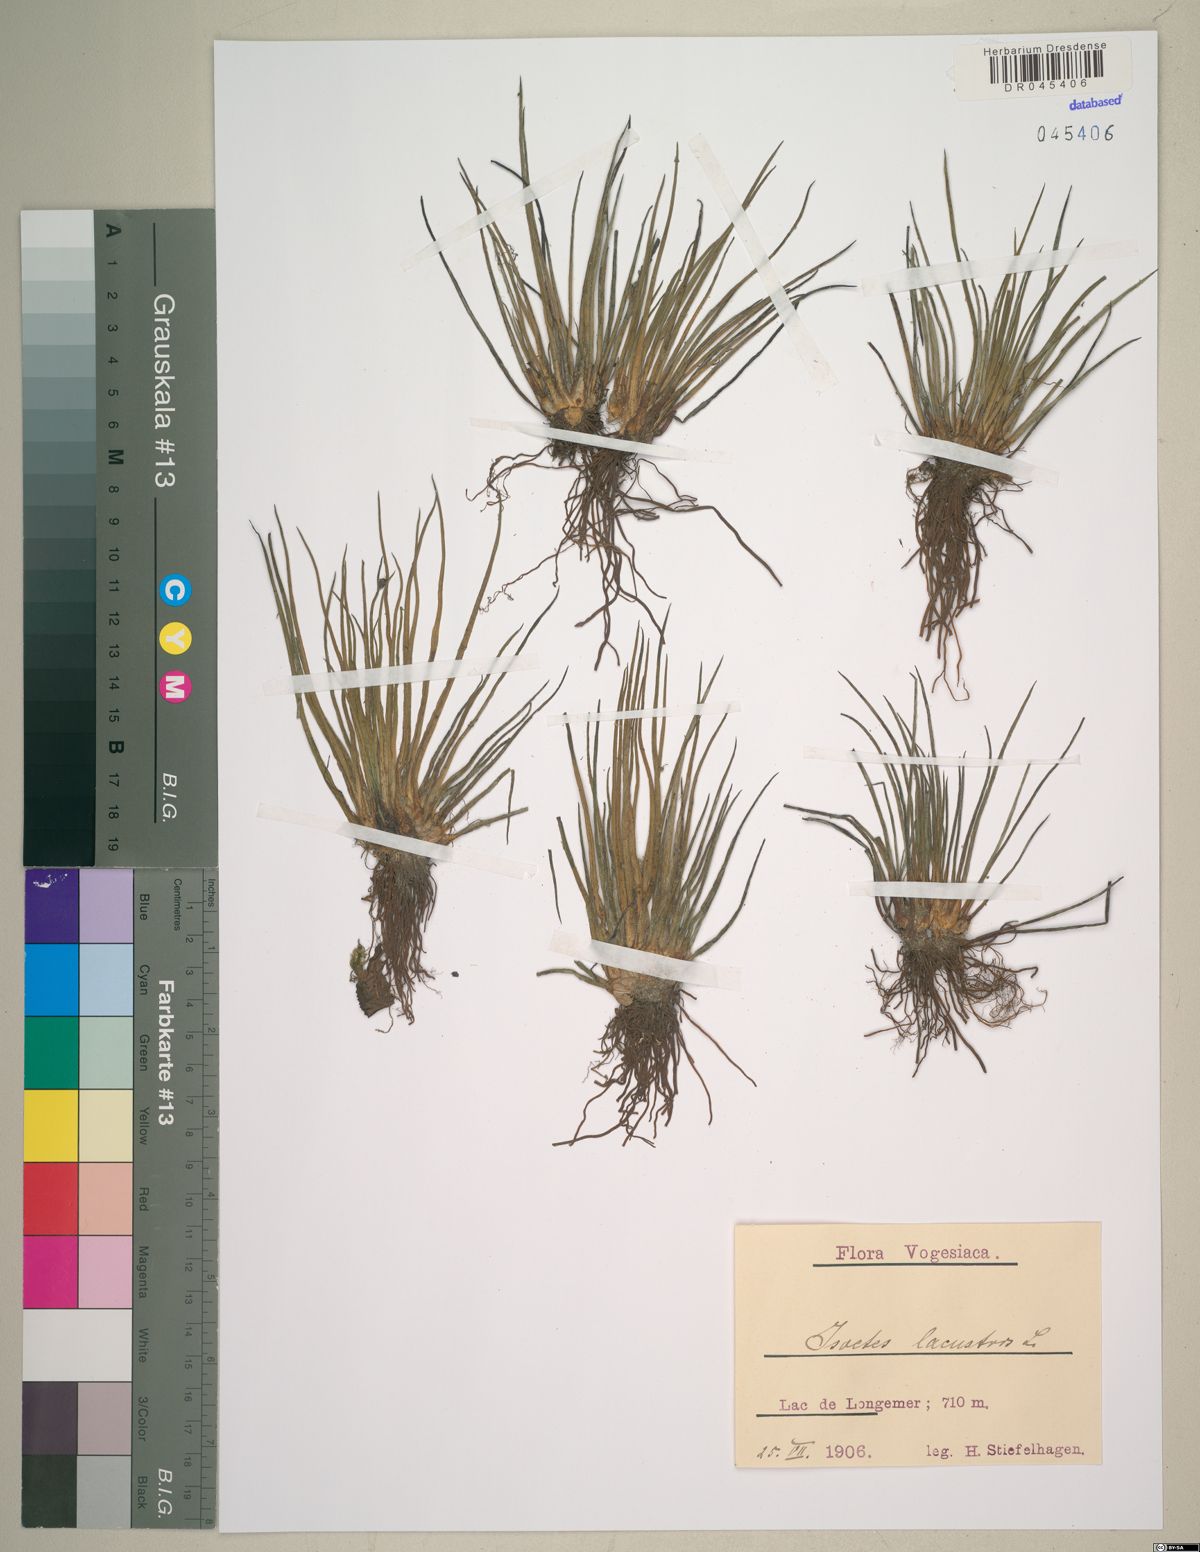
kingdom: Plantae
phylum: Tracheophyta
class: Lycopodiopsida
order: Isoetales
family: Isoetaceae
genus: Isoetes
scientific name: Isoetes lacustris
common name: Common quillwort
